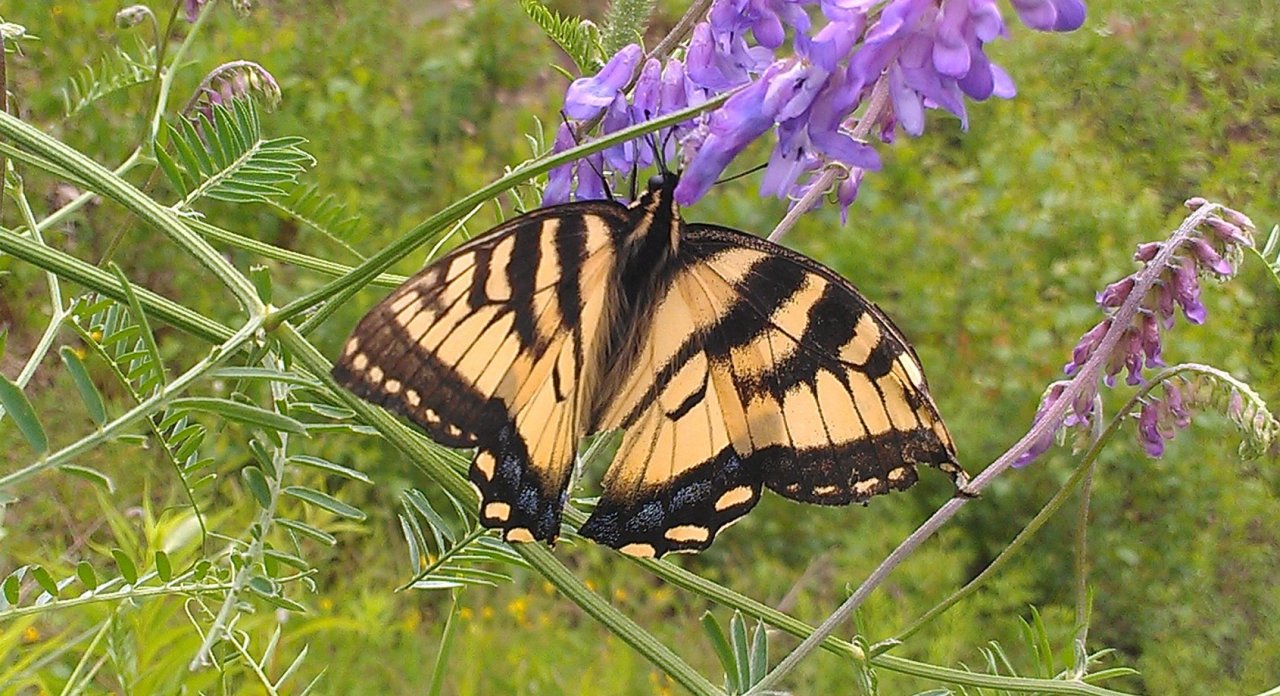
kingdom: Animalia
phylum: Arthropoda
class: Insecta
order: Lepidoptera
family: Papilionidae
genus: Pterourus
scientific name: Pterourus canadensis
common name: Canadian Tiger Swallowtail
